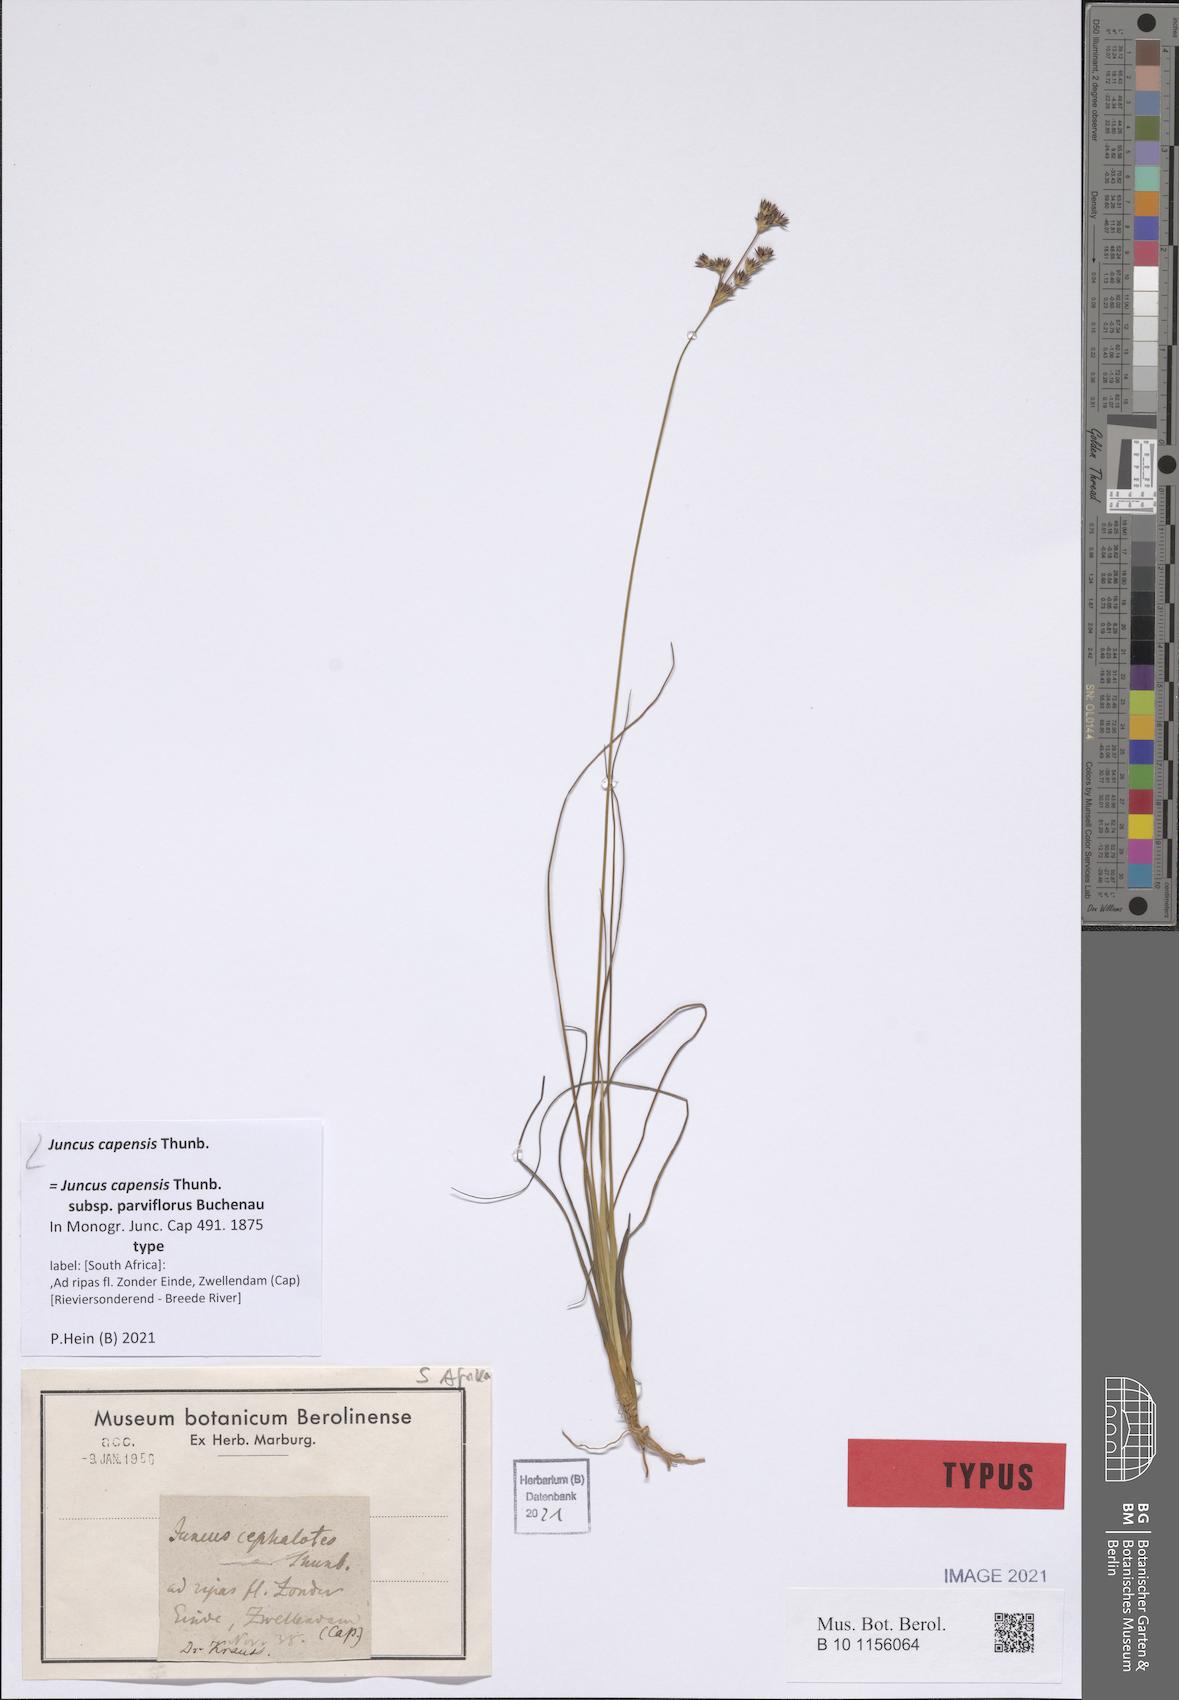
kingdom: Plantae
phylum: Tracheophyta
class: Liliopsida
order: Poales
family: Juncaceae
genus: Juncus
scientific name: Juncus capensis
